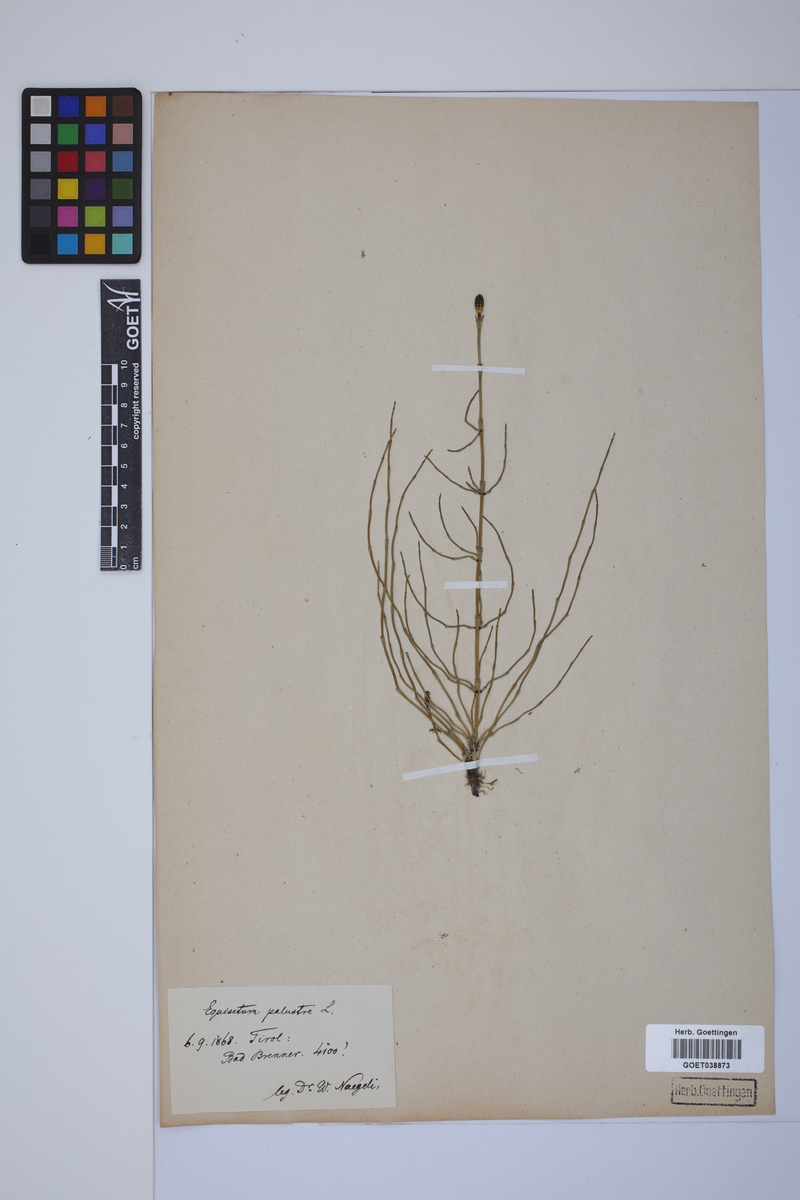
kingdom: Plantae
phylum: Tracheophyta
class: Polypodiopsida
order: Equisetales
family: Equisetaceae
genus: Equisetum
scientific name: Equisetum palustre
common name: Marsh horsetail
